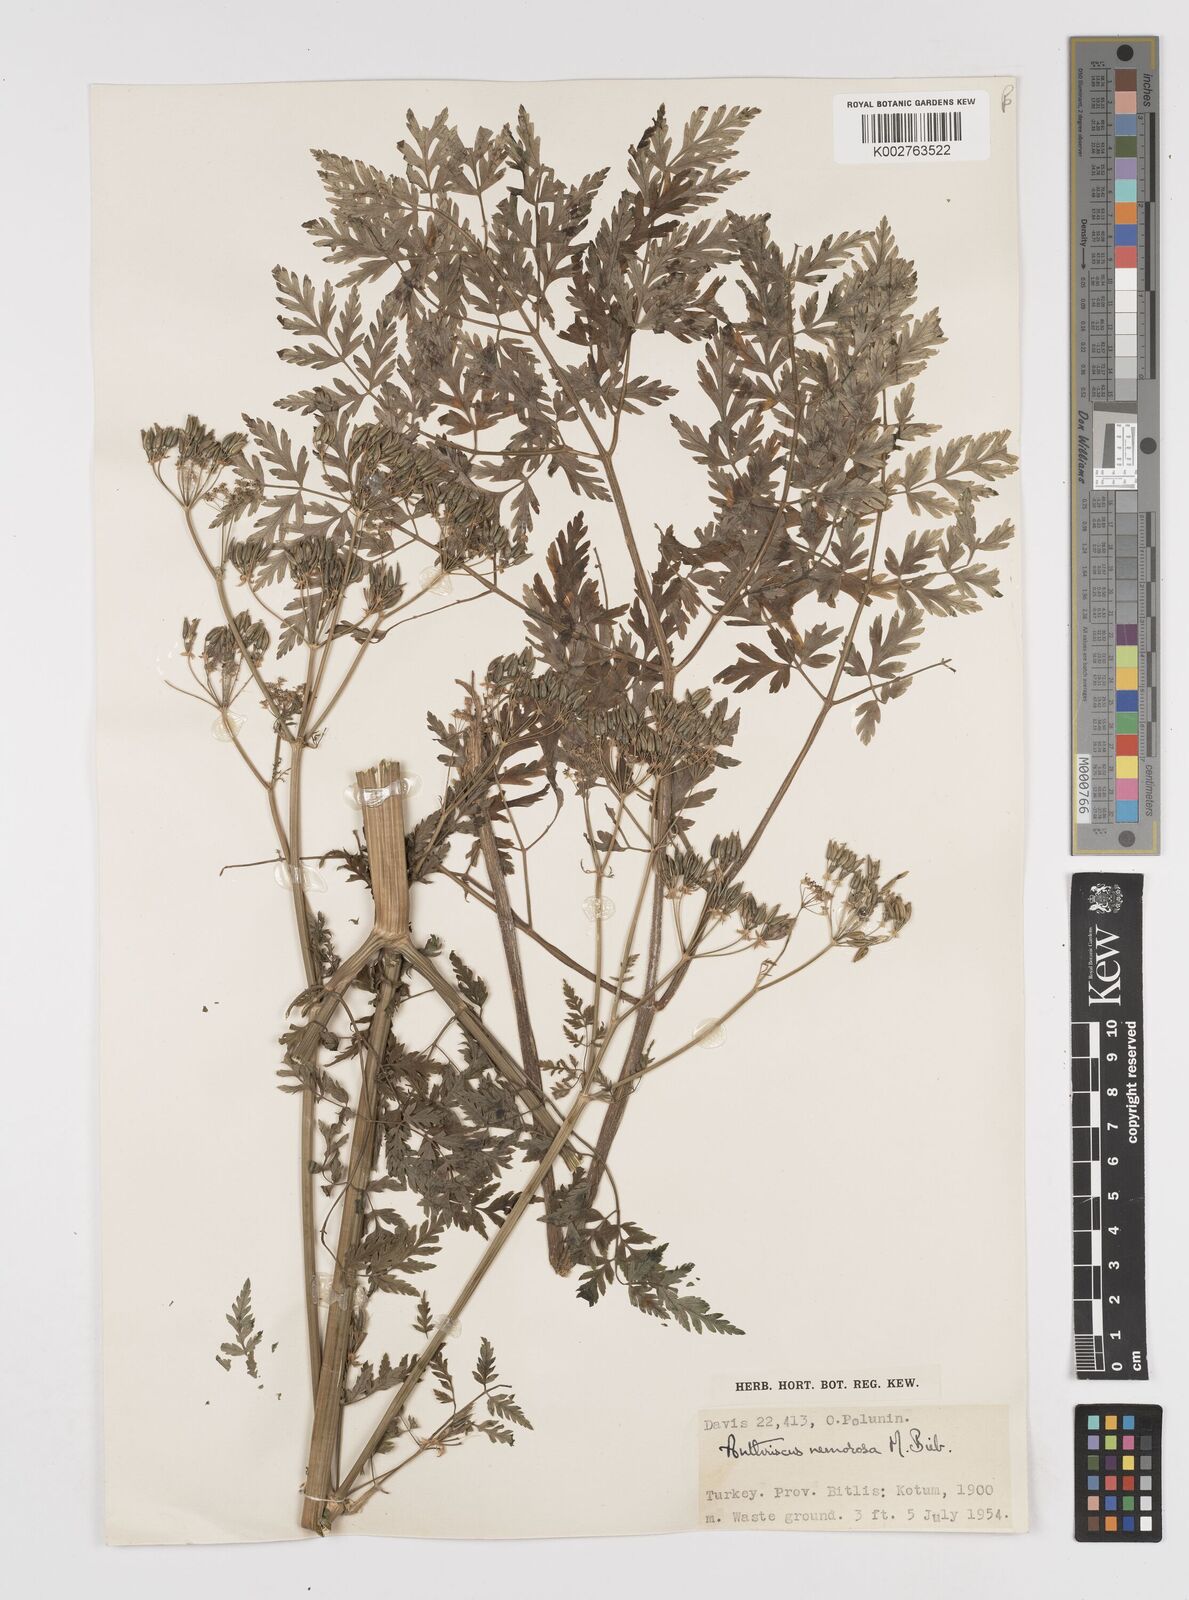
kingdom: Plantae
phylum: Tracheophyta
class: Magnoliopsida
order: Apiales
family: Apiaceae
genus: Anthriscus
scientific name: Anthriscus sylvestris
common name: Cow parsley
